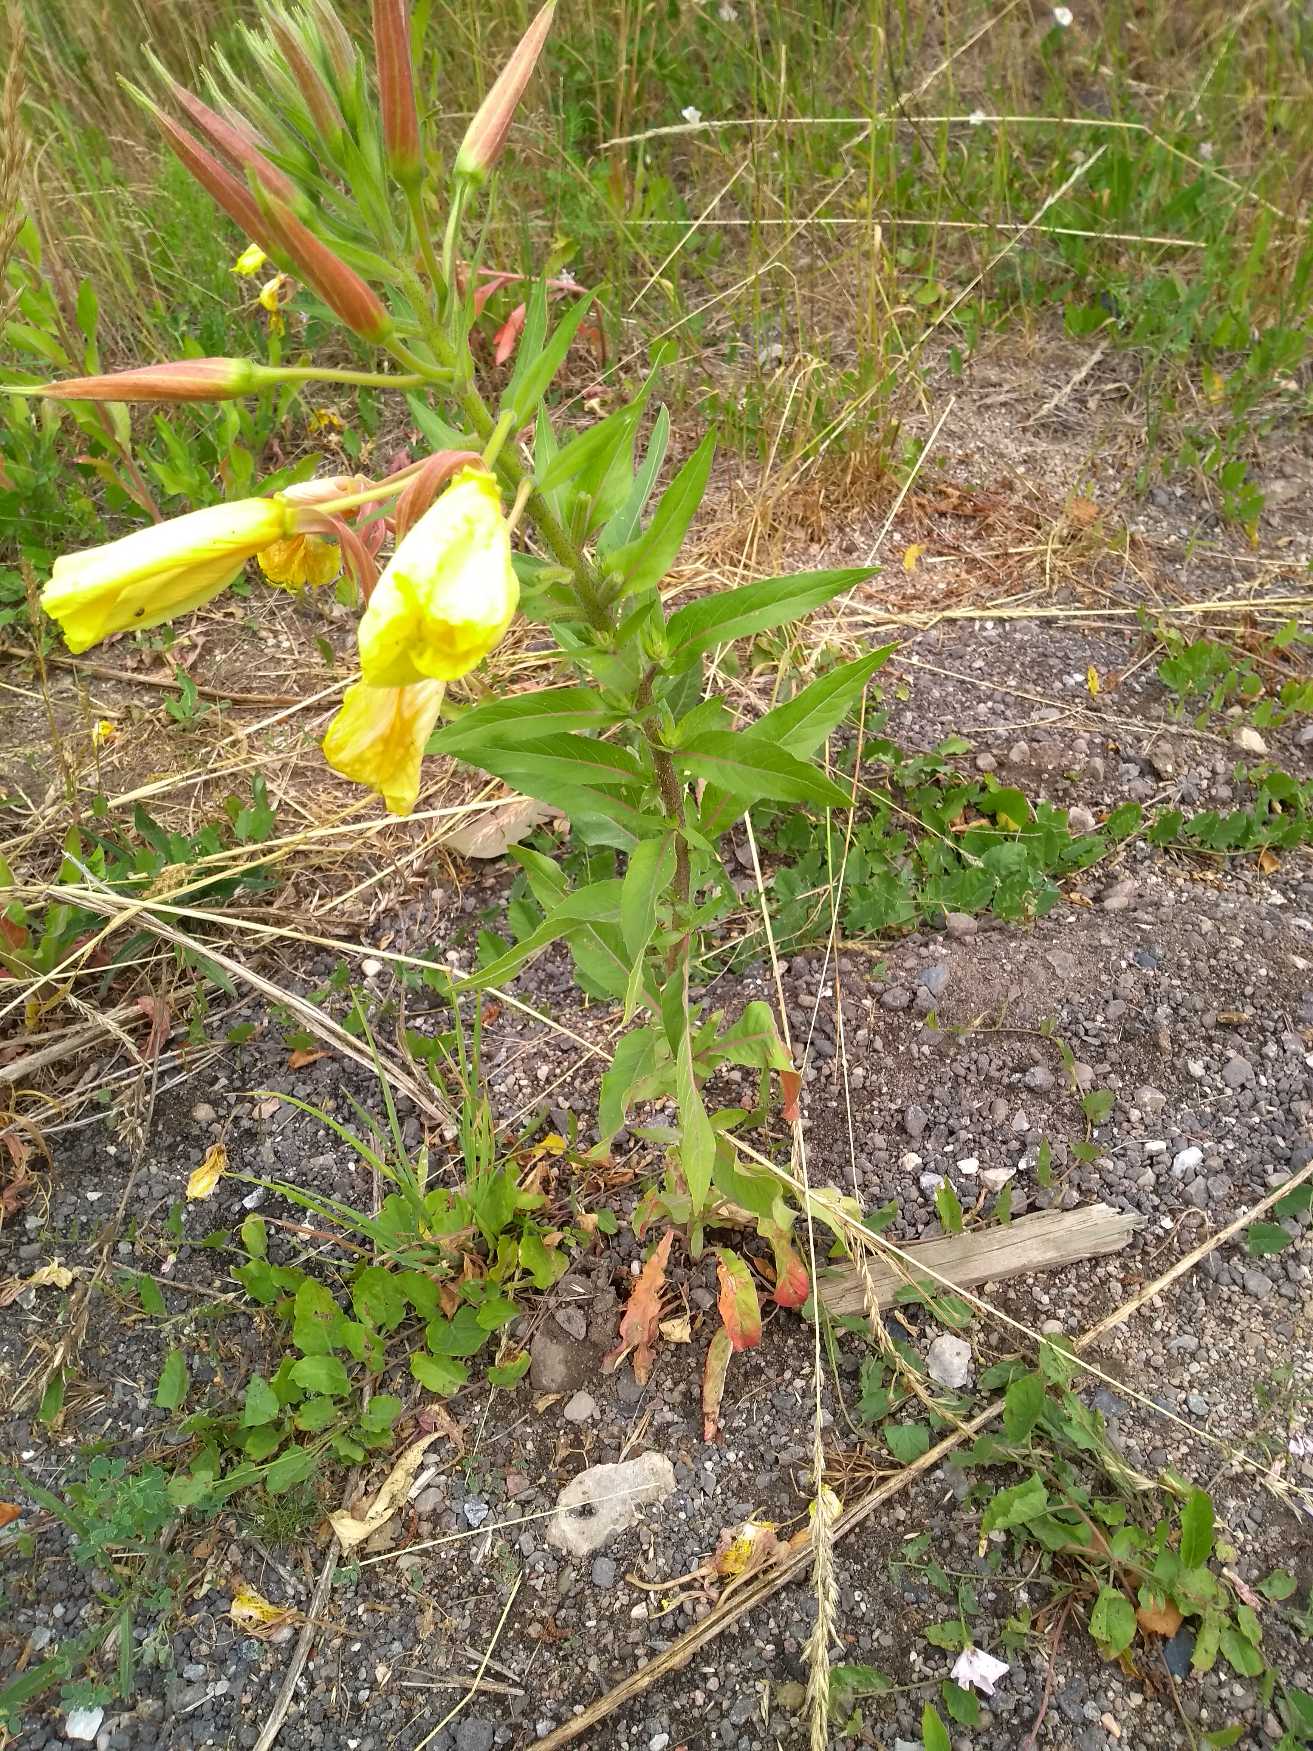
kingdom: Plantae
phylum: Tracheophyta
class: Magnoliopsida
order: Myrtales
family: Onagraceae
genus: Oenothera
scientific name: Oenothera glazioviana
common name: Kæmpe-natlys
